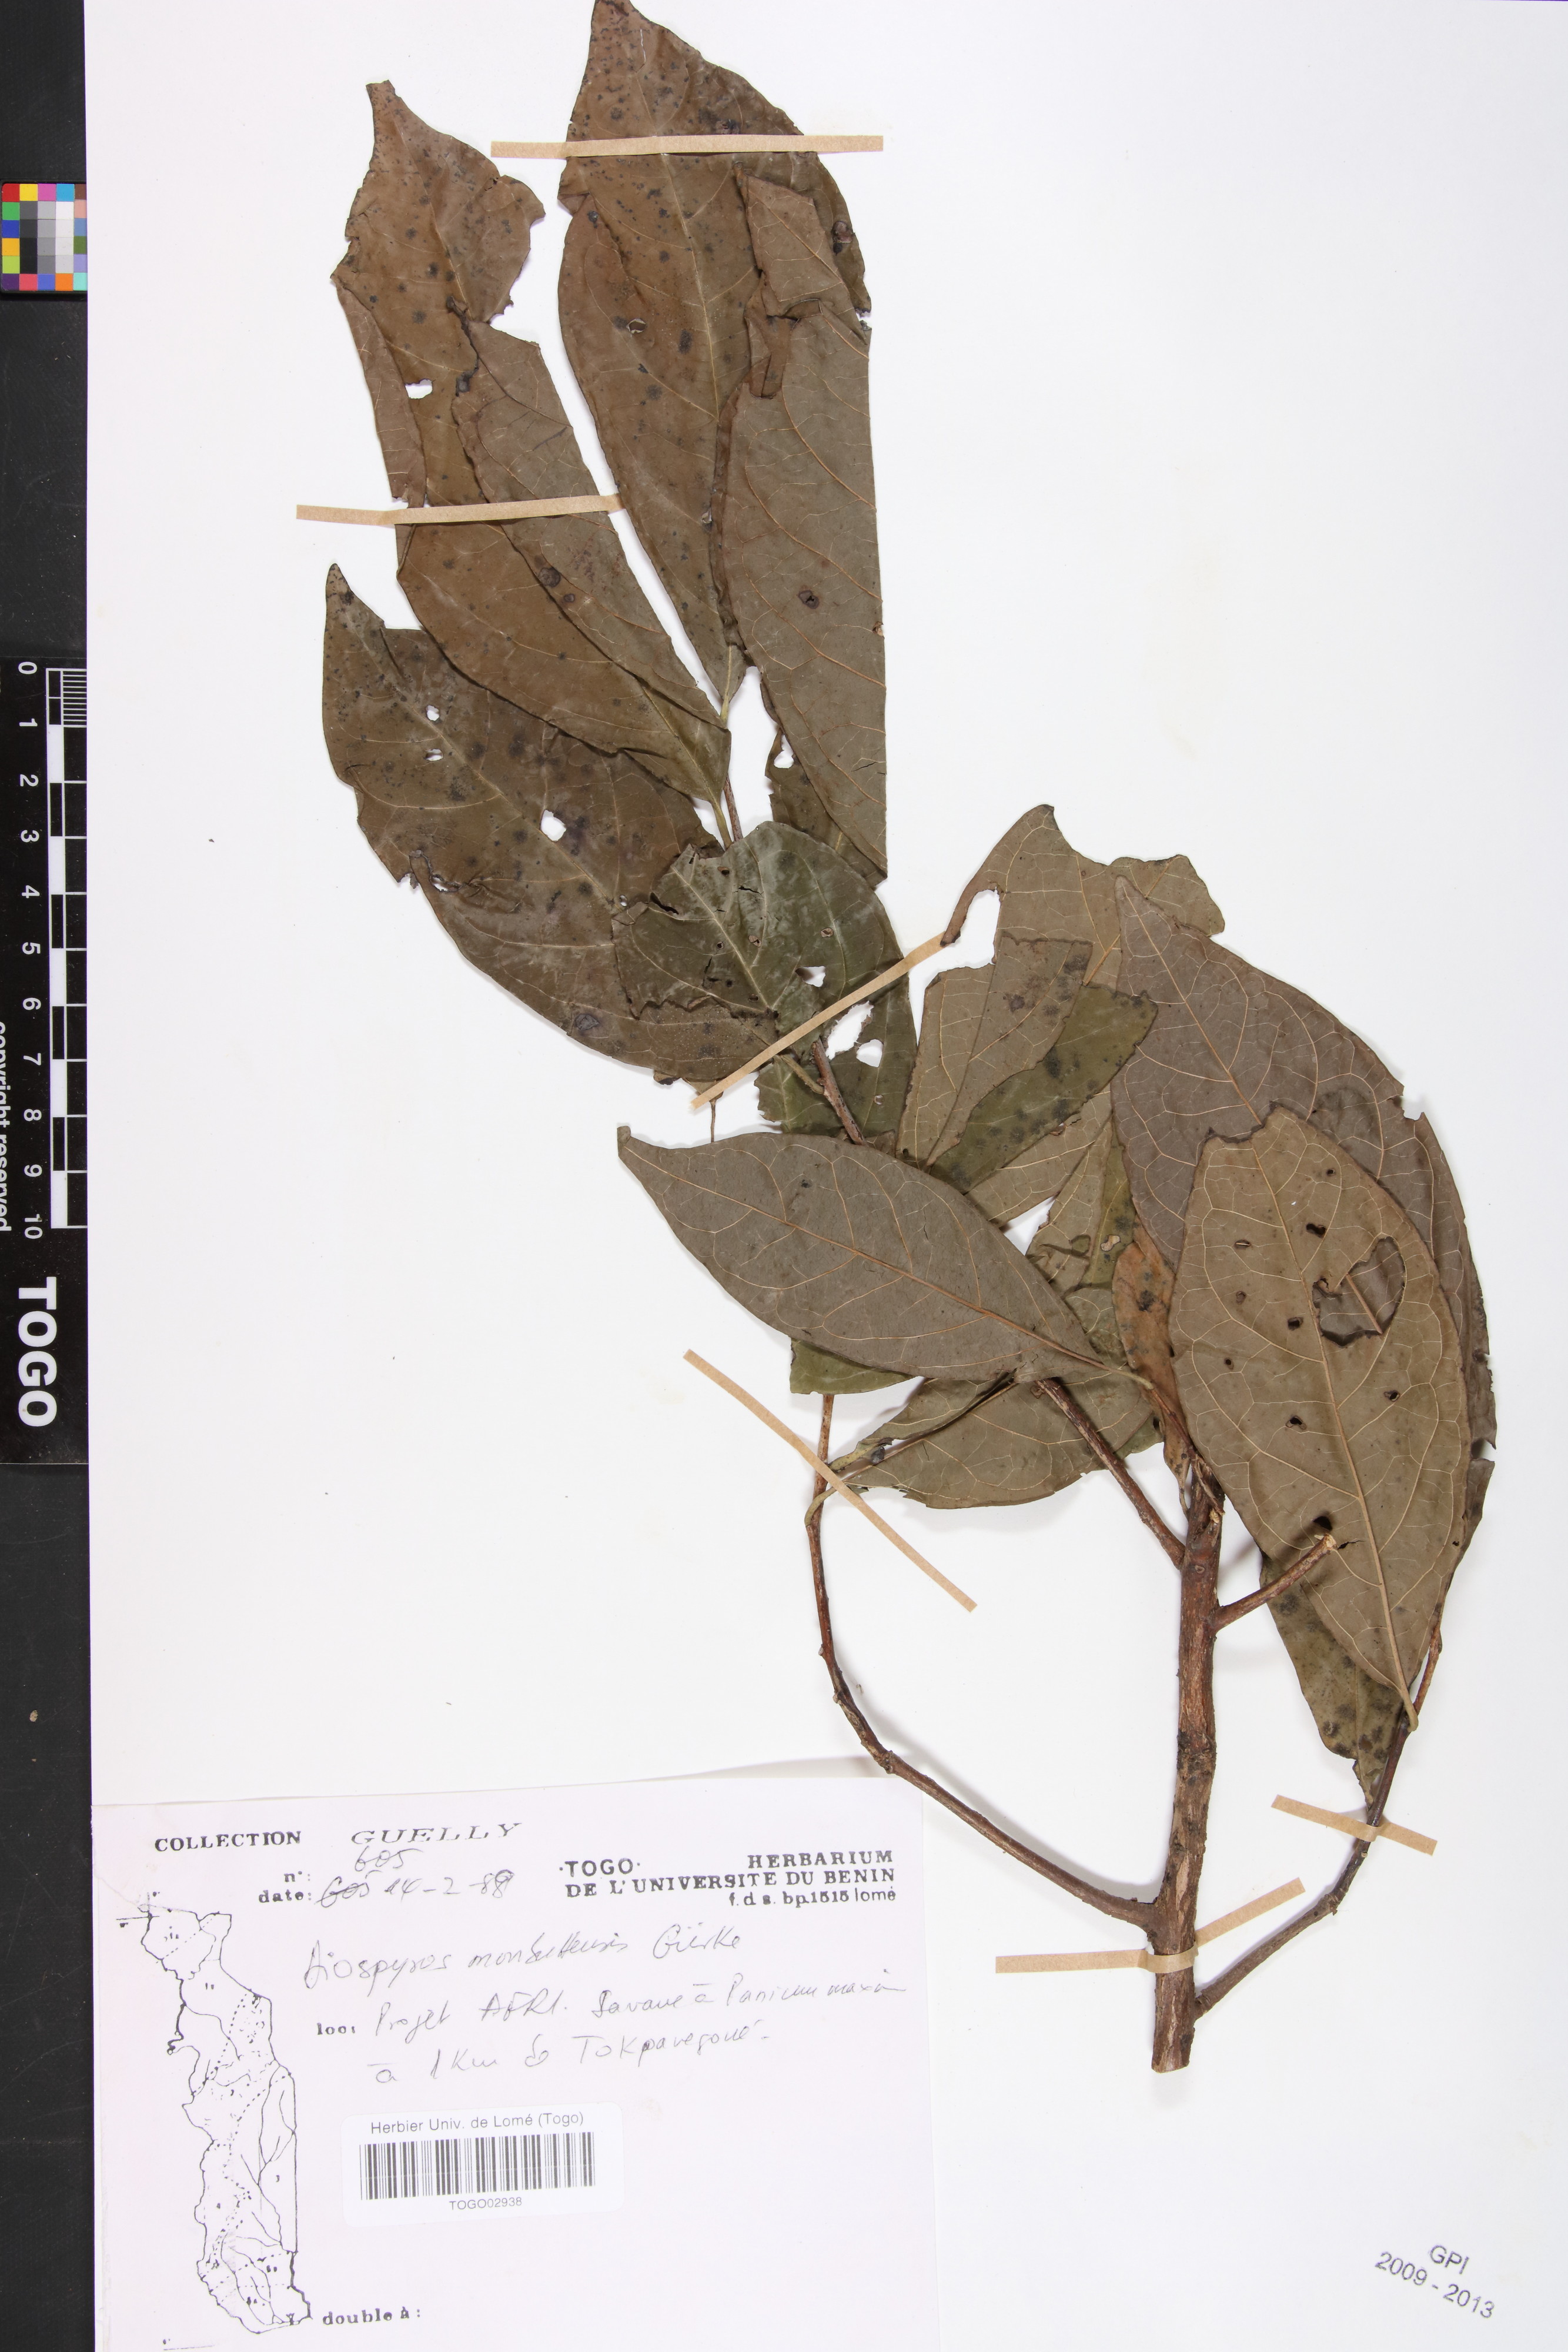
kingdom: Plantae
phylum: Tracheophyta
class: Magnoliopsida
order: Ericales
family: Ebenaceae
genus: Diospyros
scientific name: Diospyros monbuttensis
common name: Walking-stick ebony
